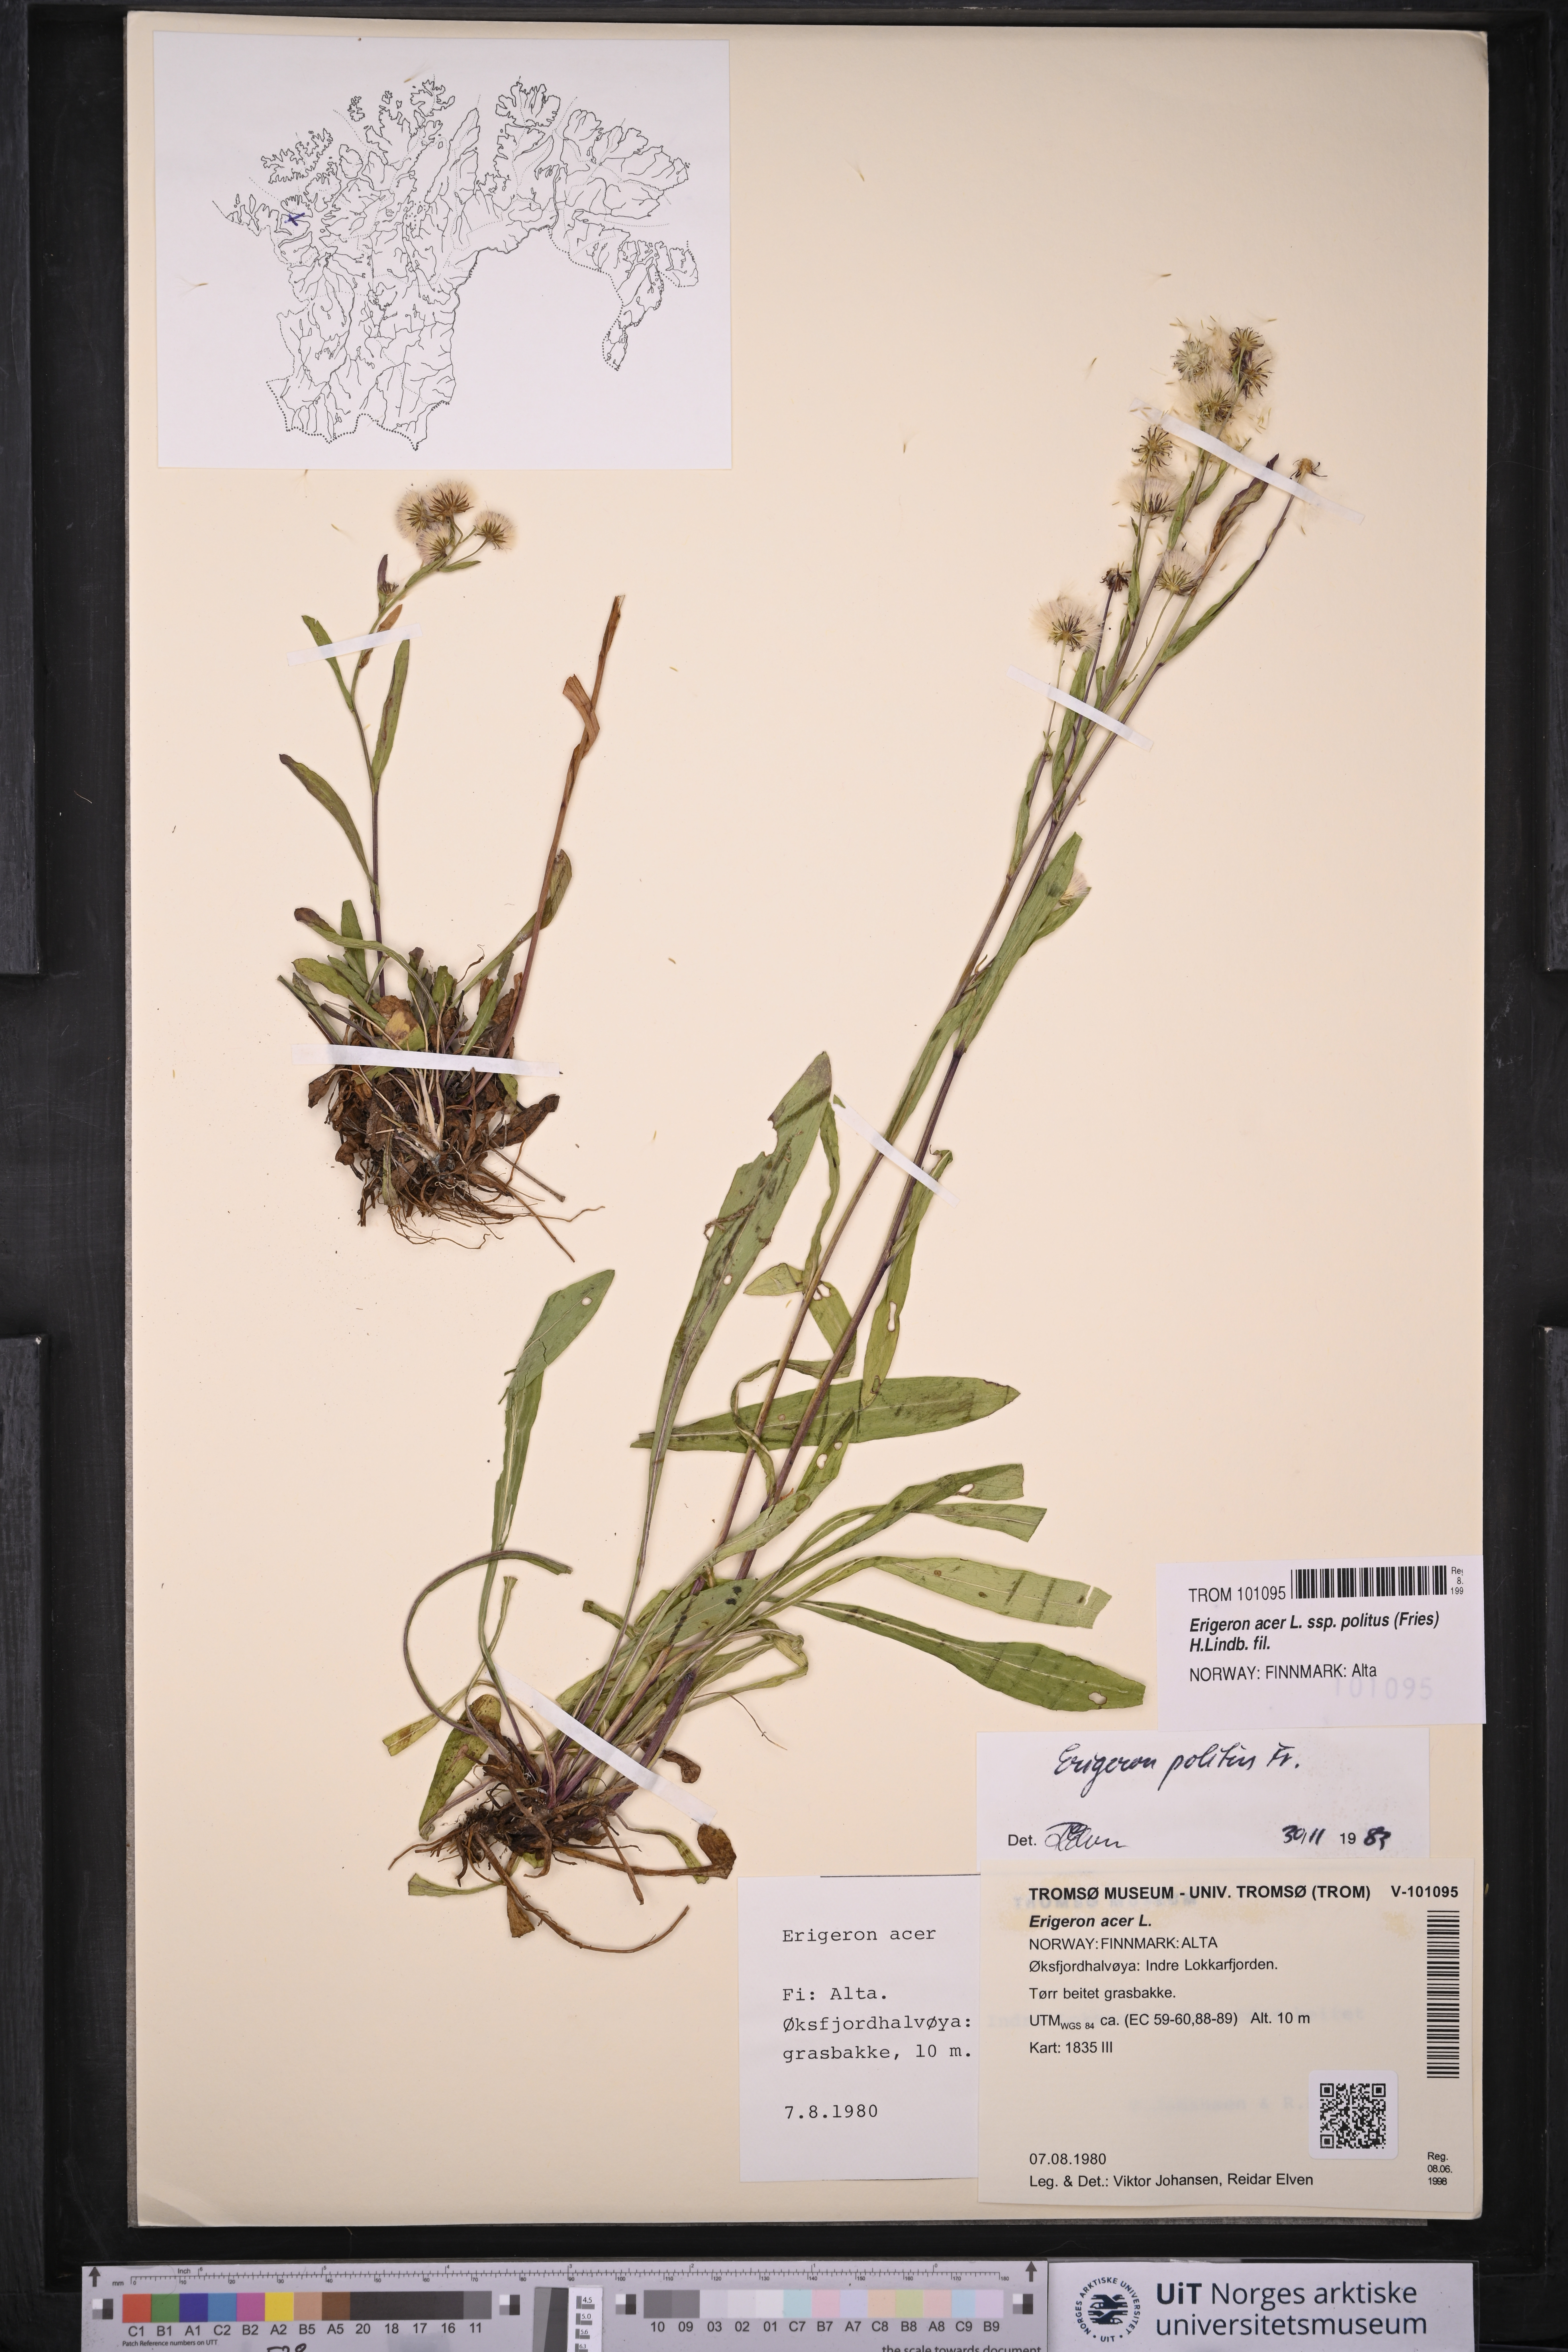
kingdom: Plantae
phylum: Tracheophyta
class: Magnoliopsida
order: Asterales
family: Asteraceae
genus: Erigeron
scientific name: Erigeron politus
